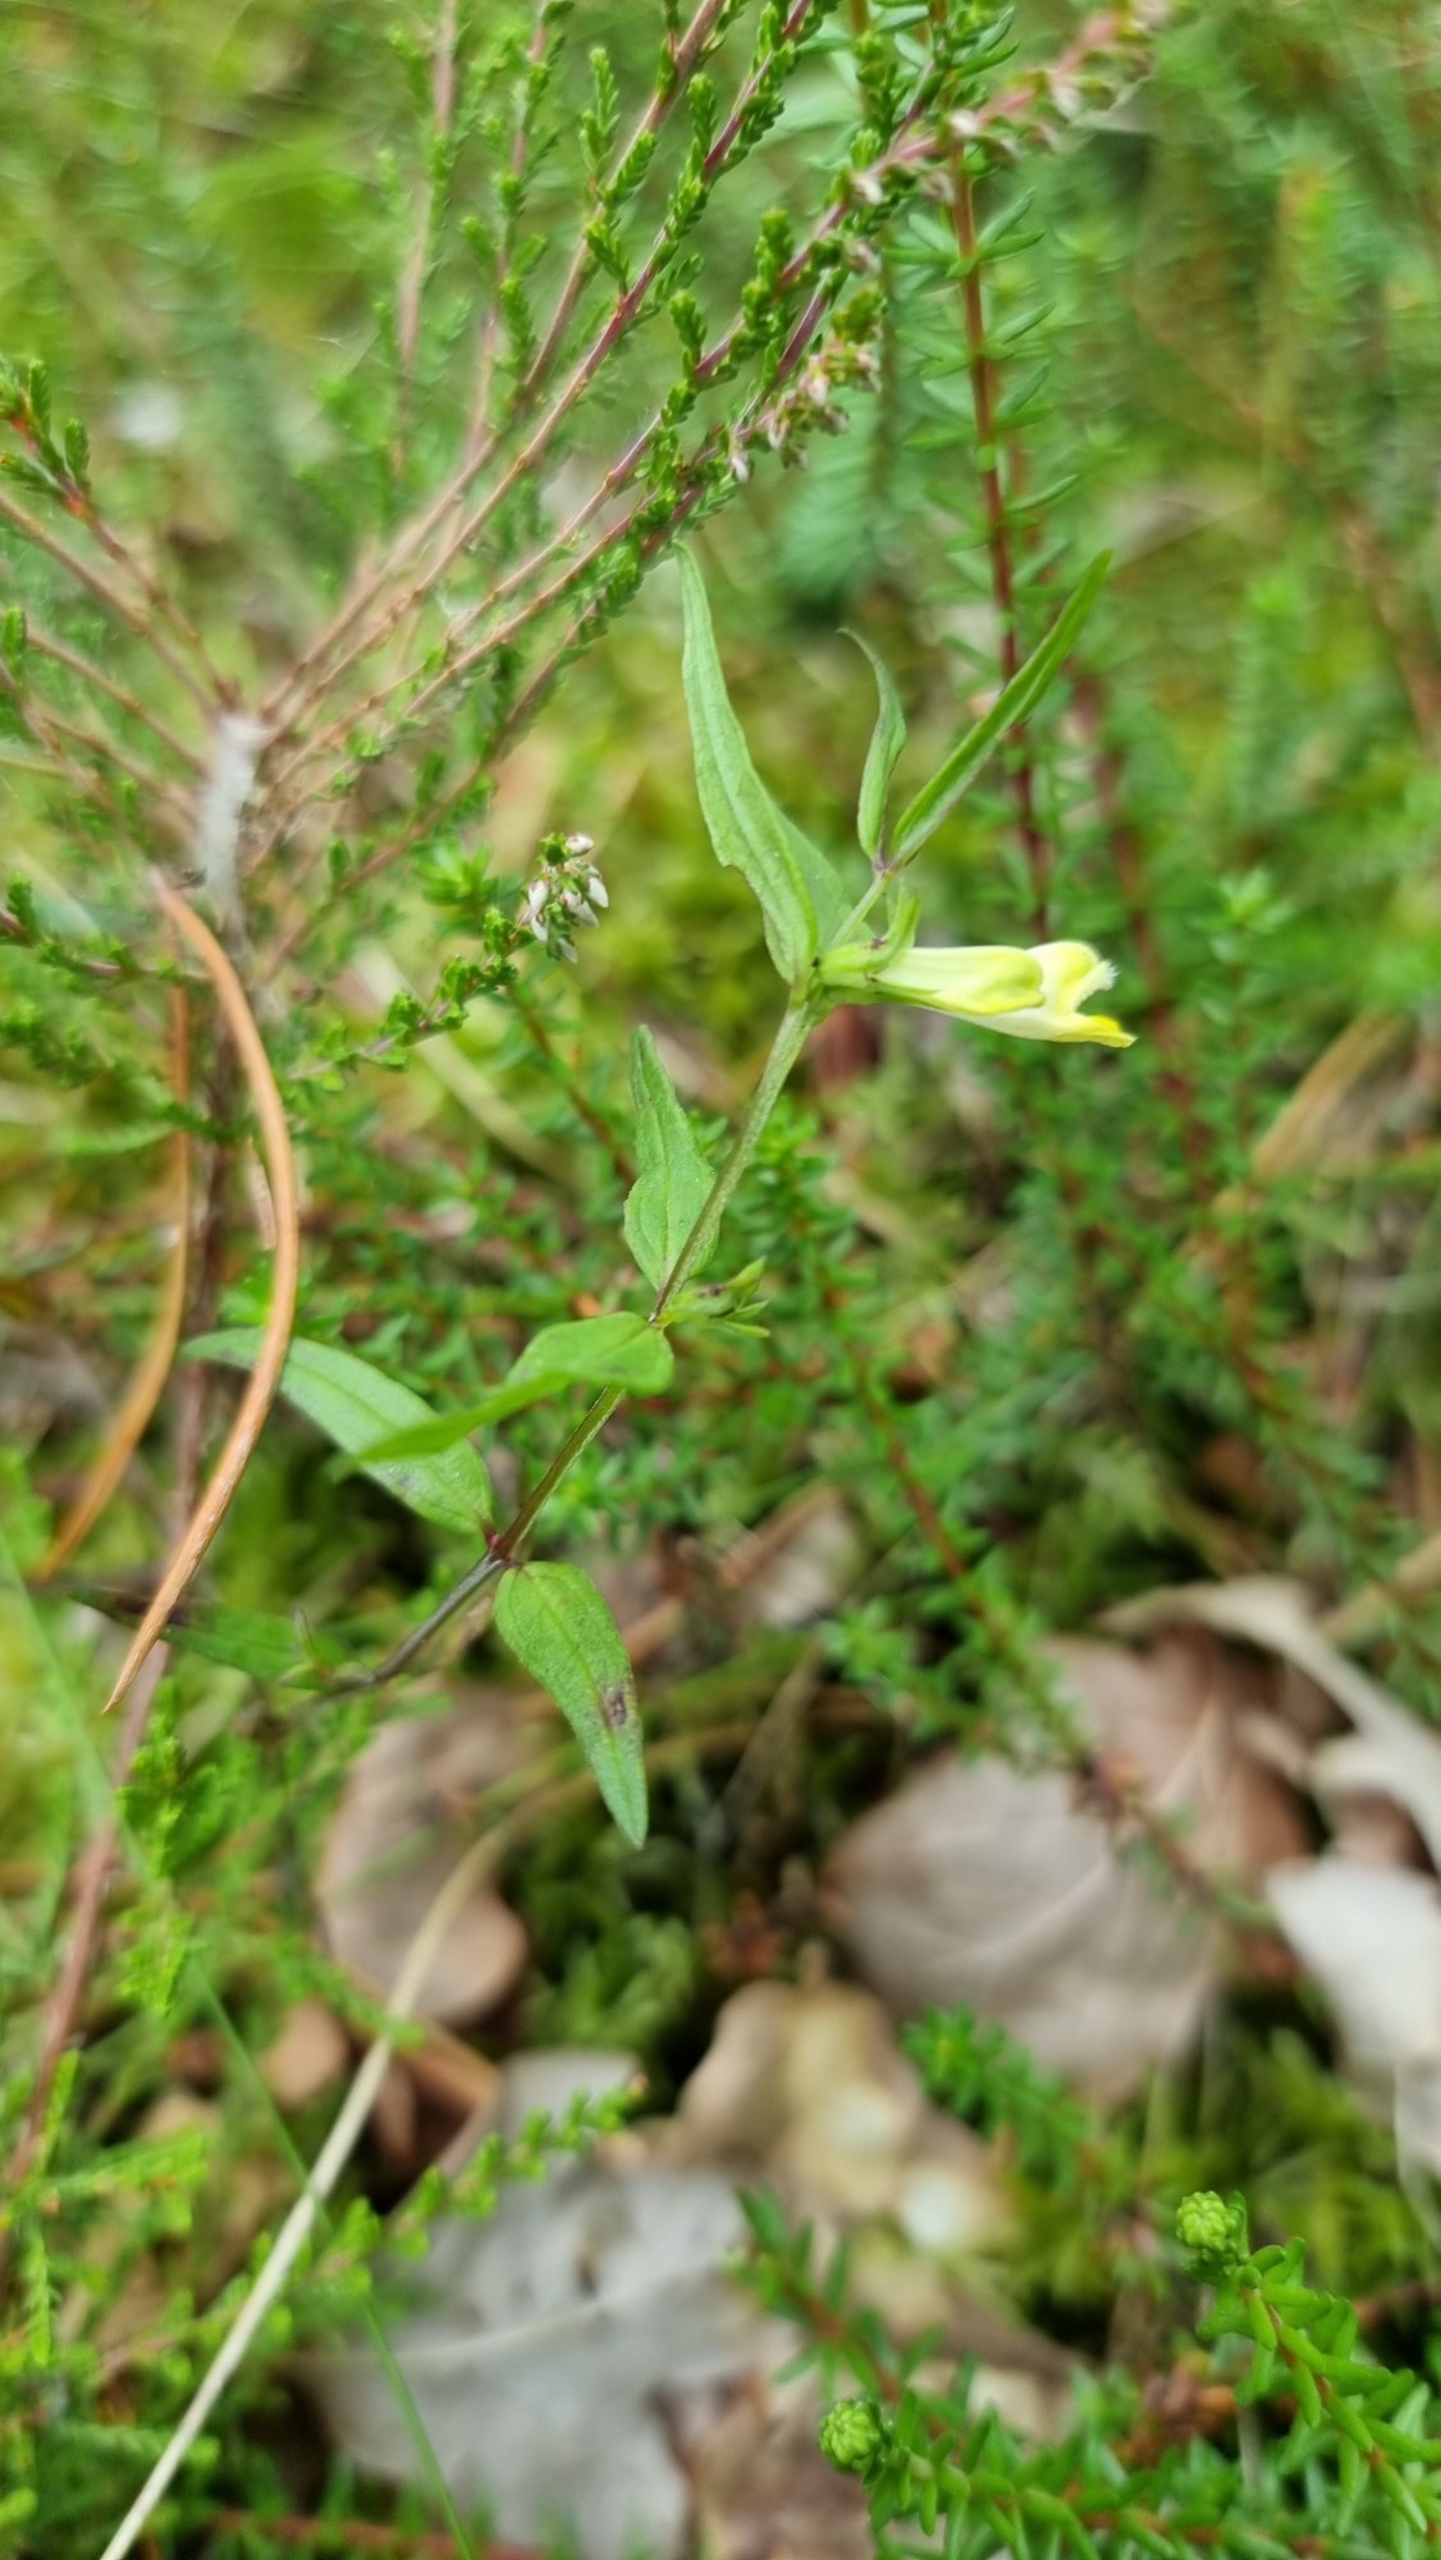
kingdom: Plantae
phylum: Tracheophyta
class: Magnoliopsida
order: Lamiales
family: Orobanchaceae
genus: Melampyrum
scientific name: Melampyrum pratense
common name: Almindelig kohvede
